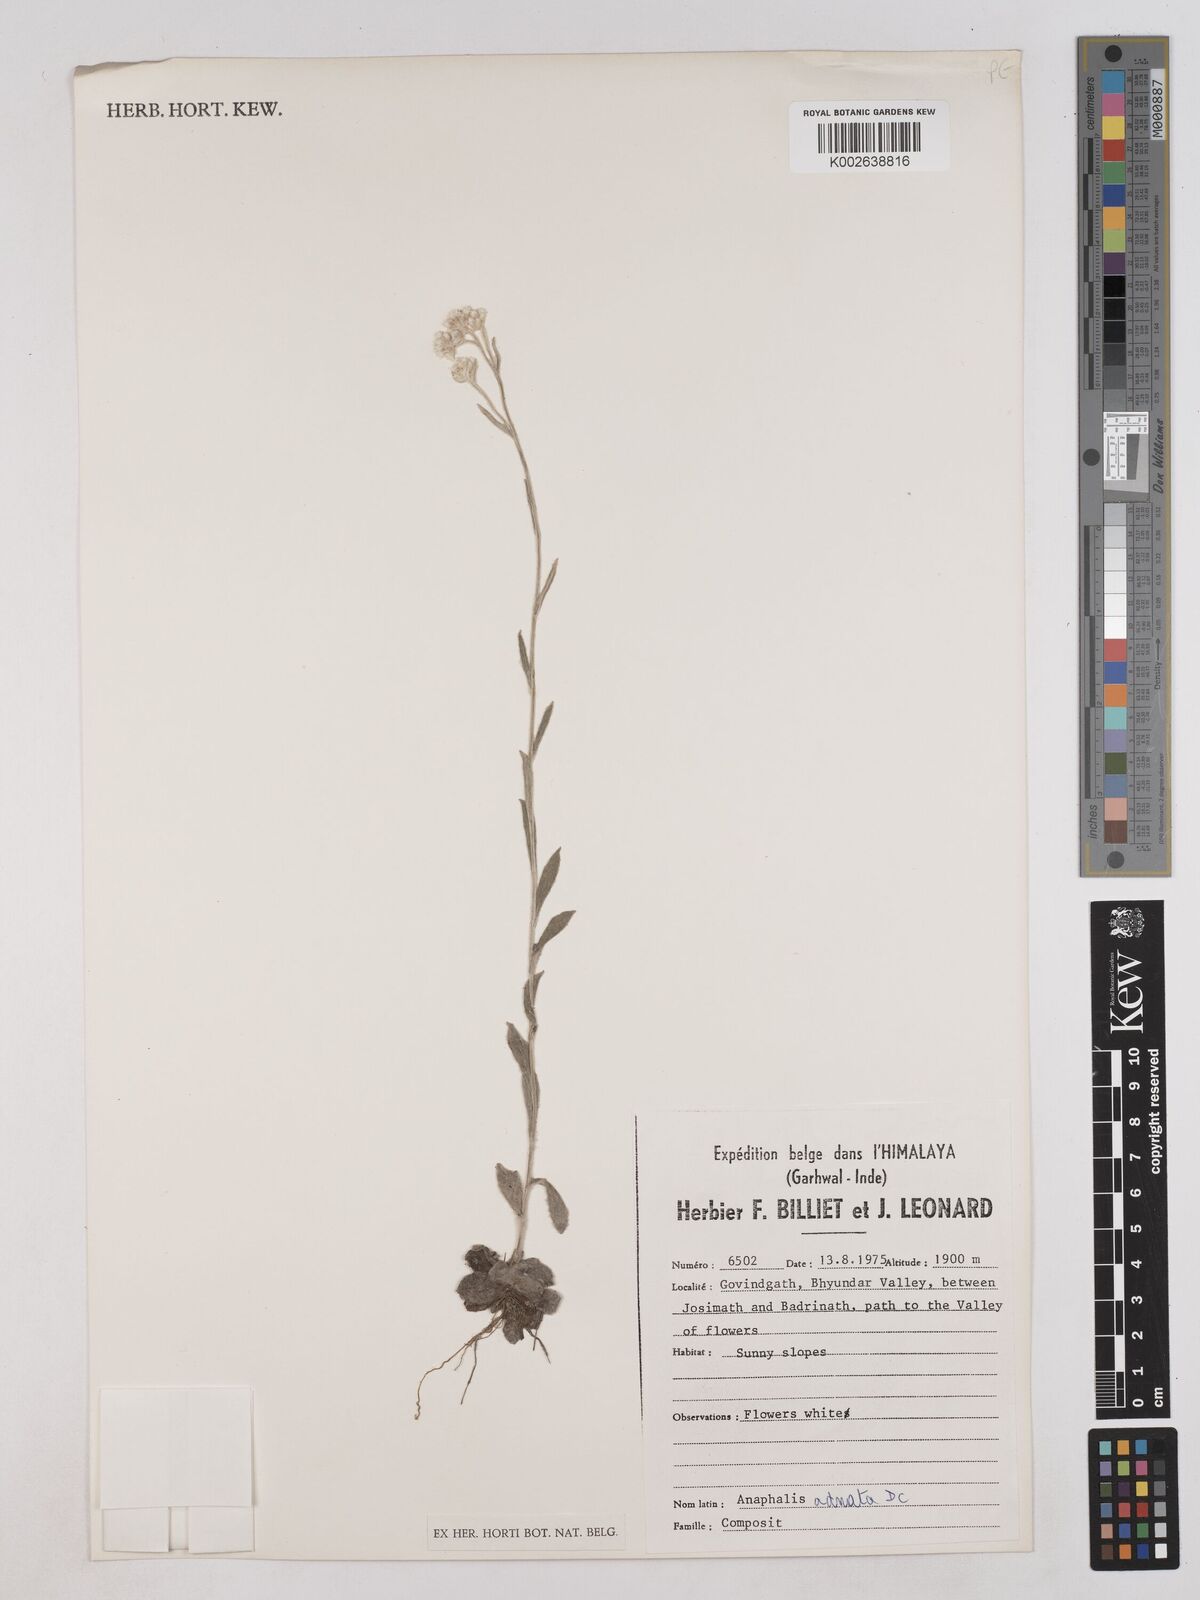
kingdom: Plantae
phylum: Tracheophyta
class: Magnoliopsida
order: Asterales
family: Asteraceae
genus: Pseudognaphalium
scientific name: Pseudognaphalium adnatum
